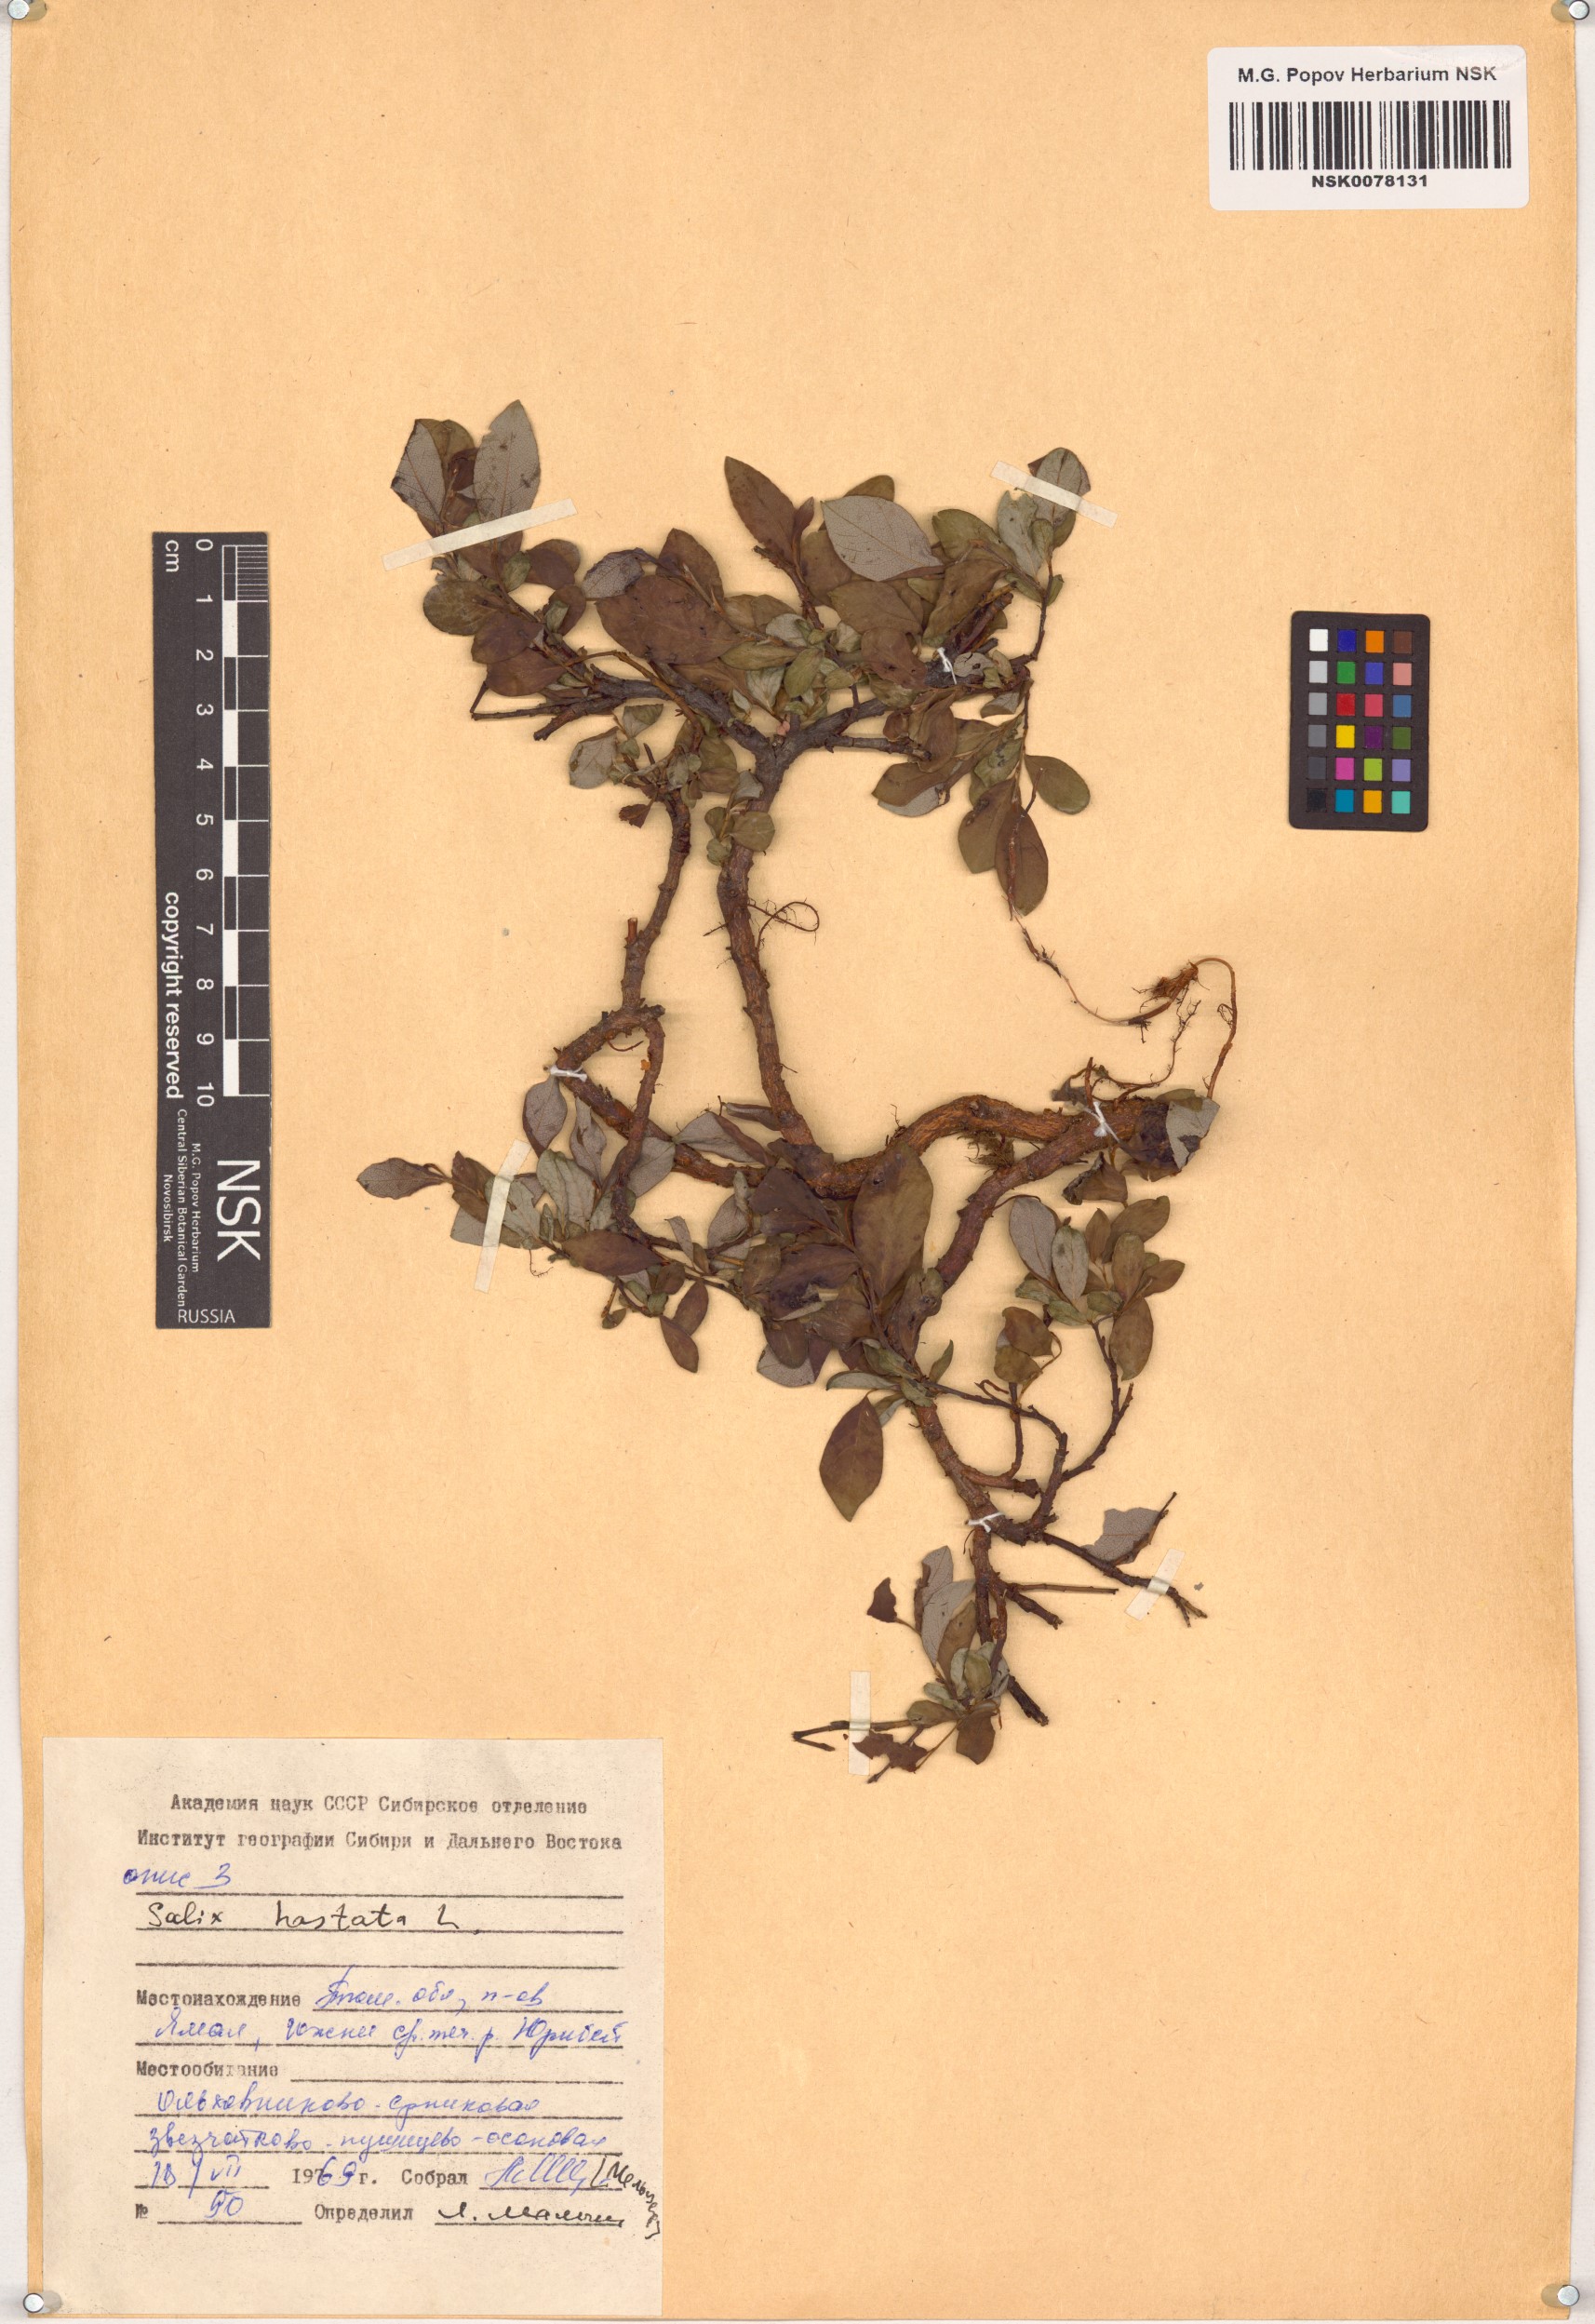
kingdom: Plantae
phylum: Tracheophyta
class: Magnoliopsida
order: Malpighiales
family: Salicaceae
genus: Salix
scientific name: Salix hastata
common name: Halberd willow
